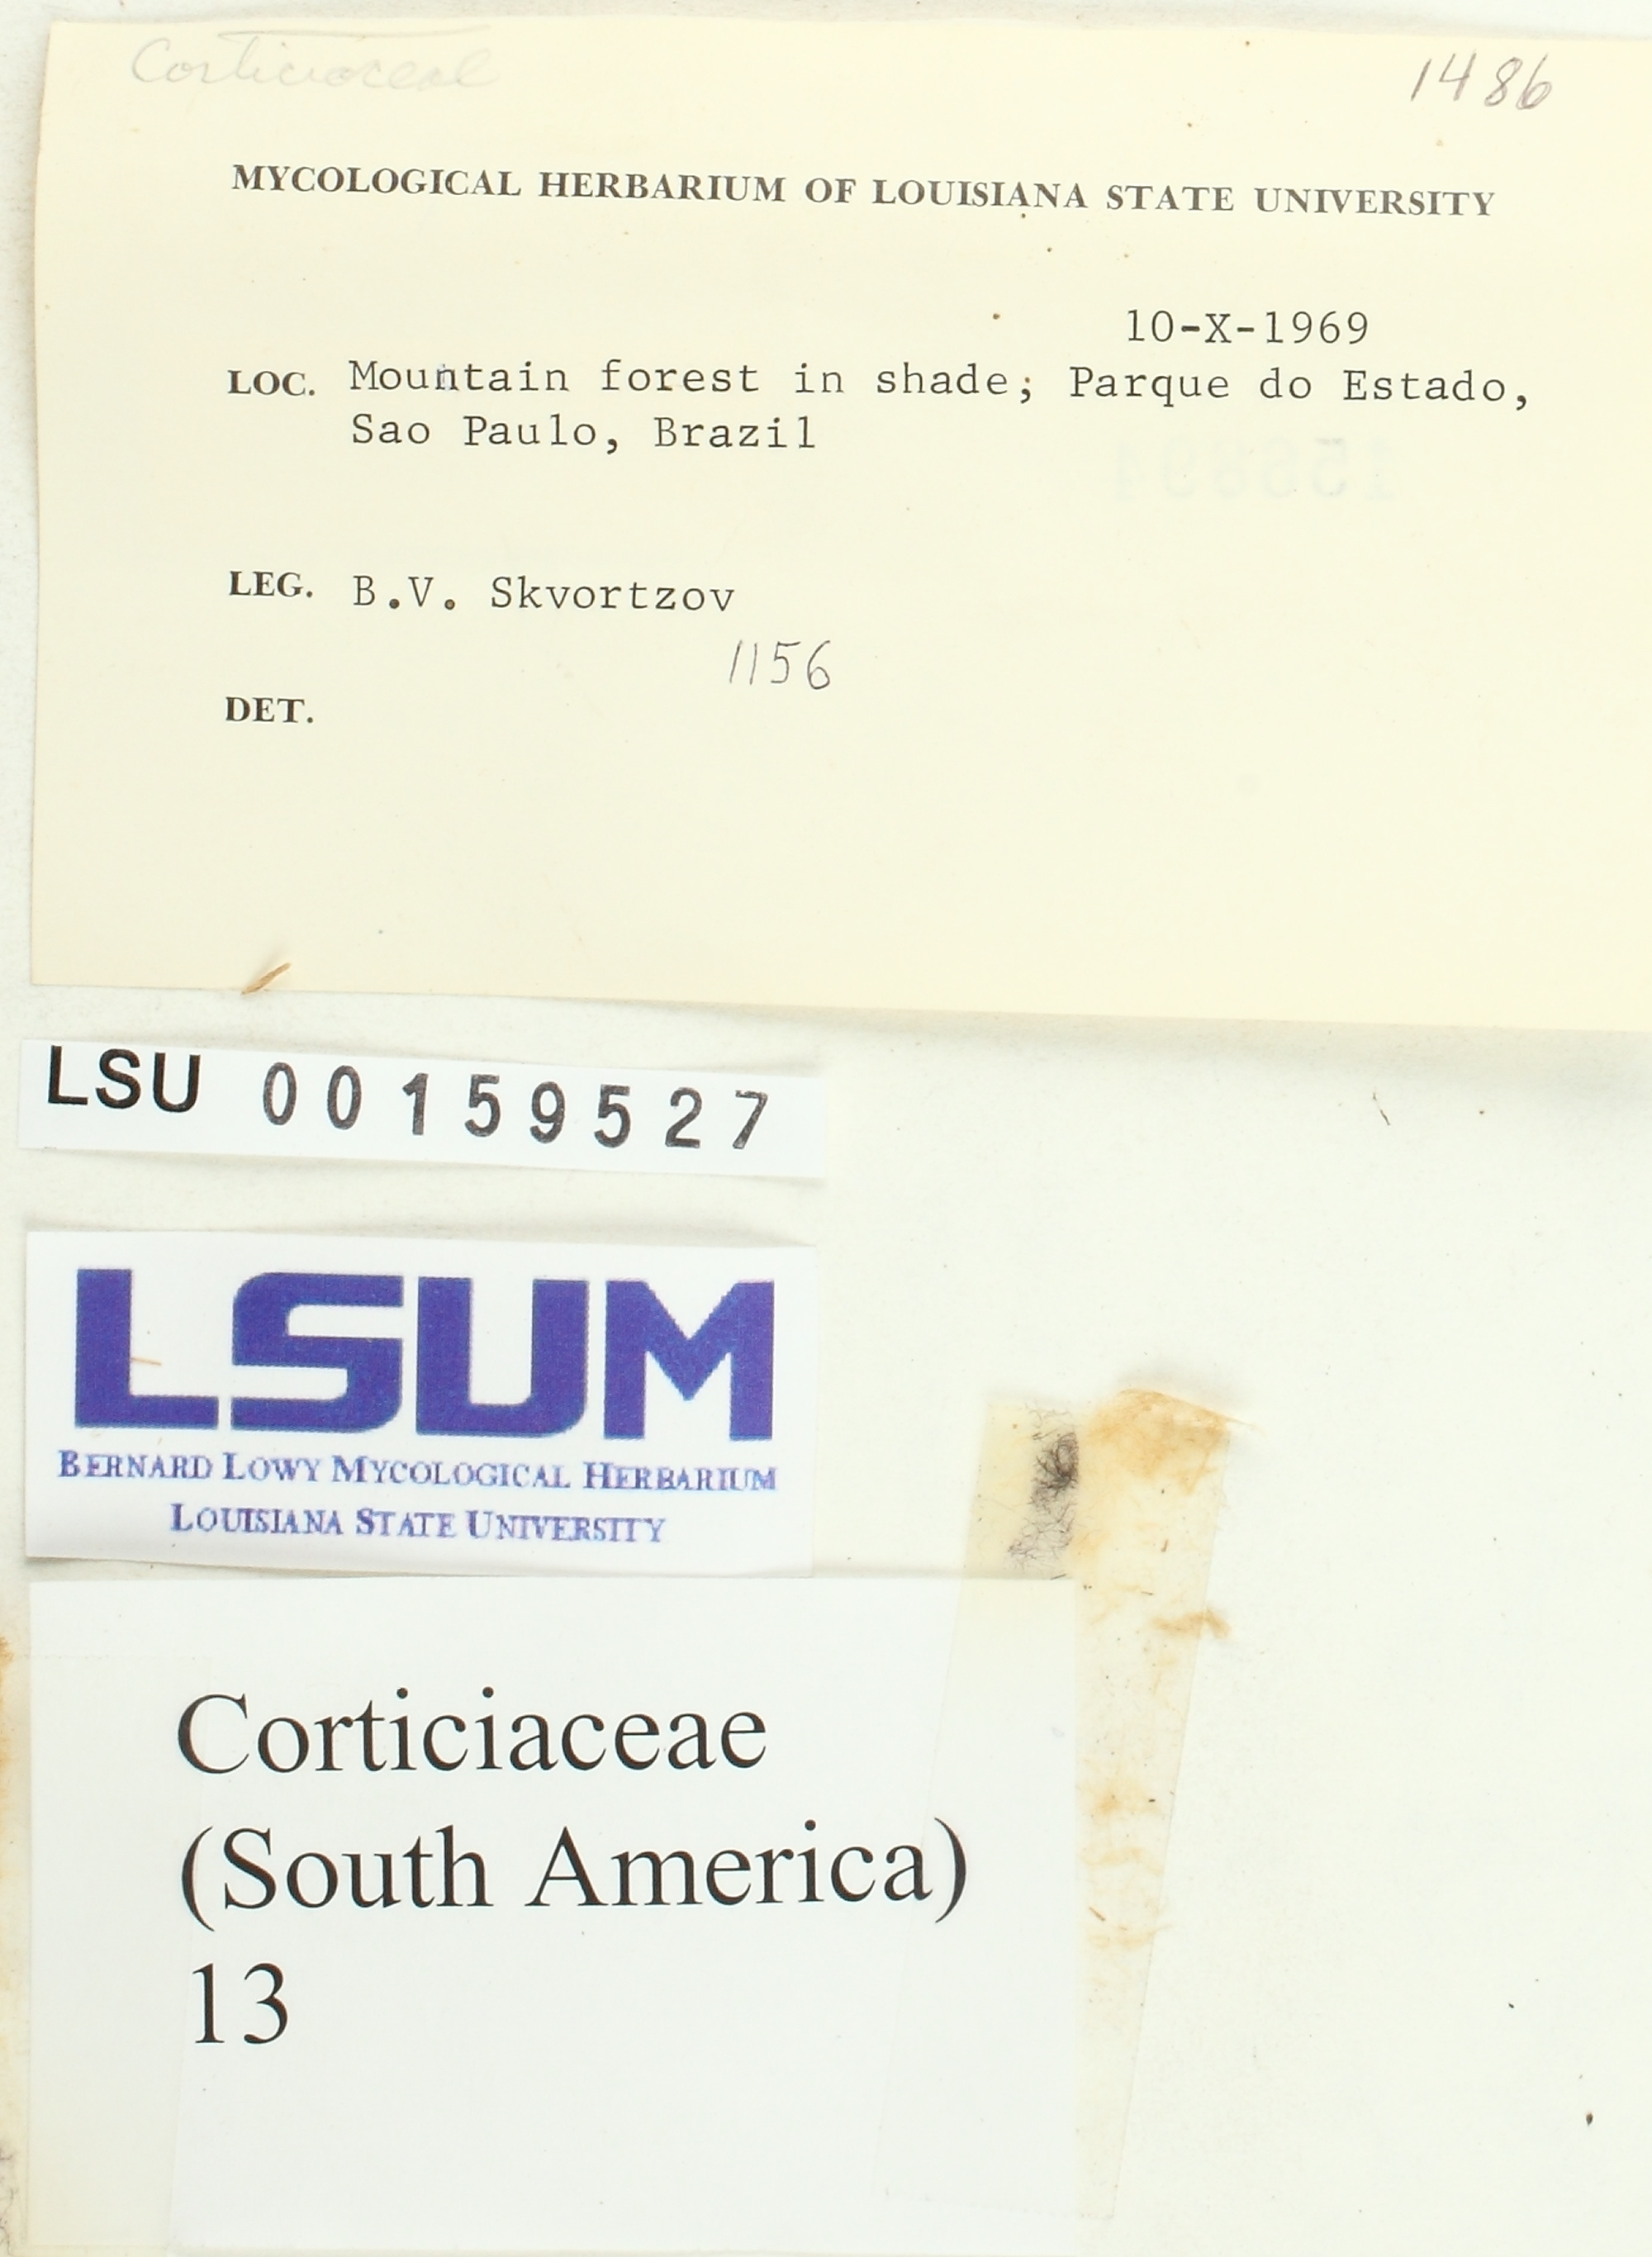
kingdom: Fungi
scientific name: Fungi
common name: Fungi
